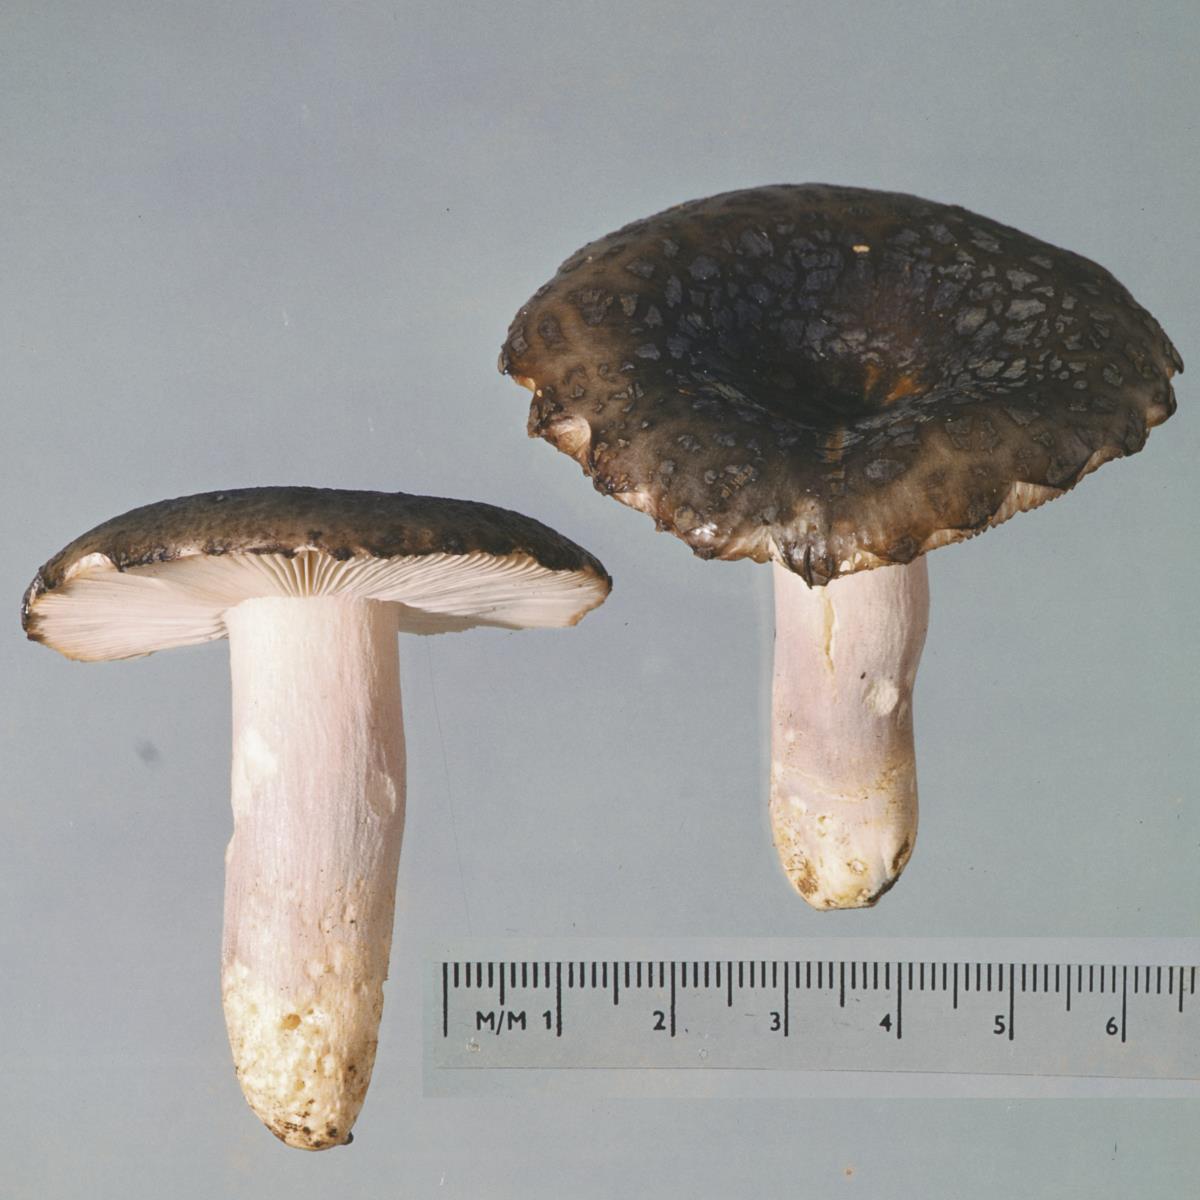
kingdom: Fungi
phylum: Basidiomycota
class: Agaricomycetes
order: Russulales
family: Russulaceae
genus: Russula
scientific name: Russula griseoviridis
